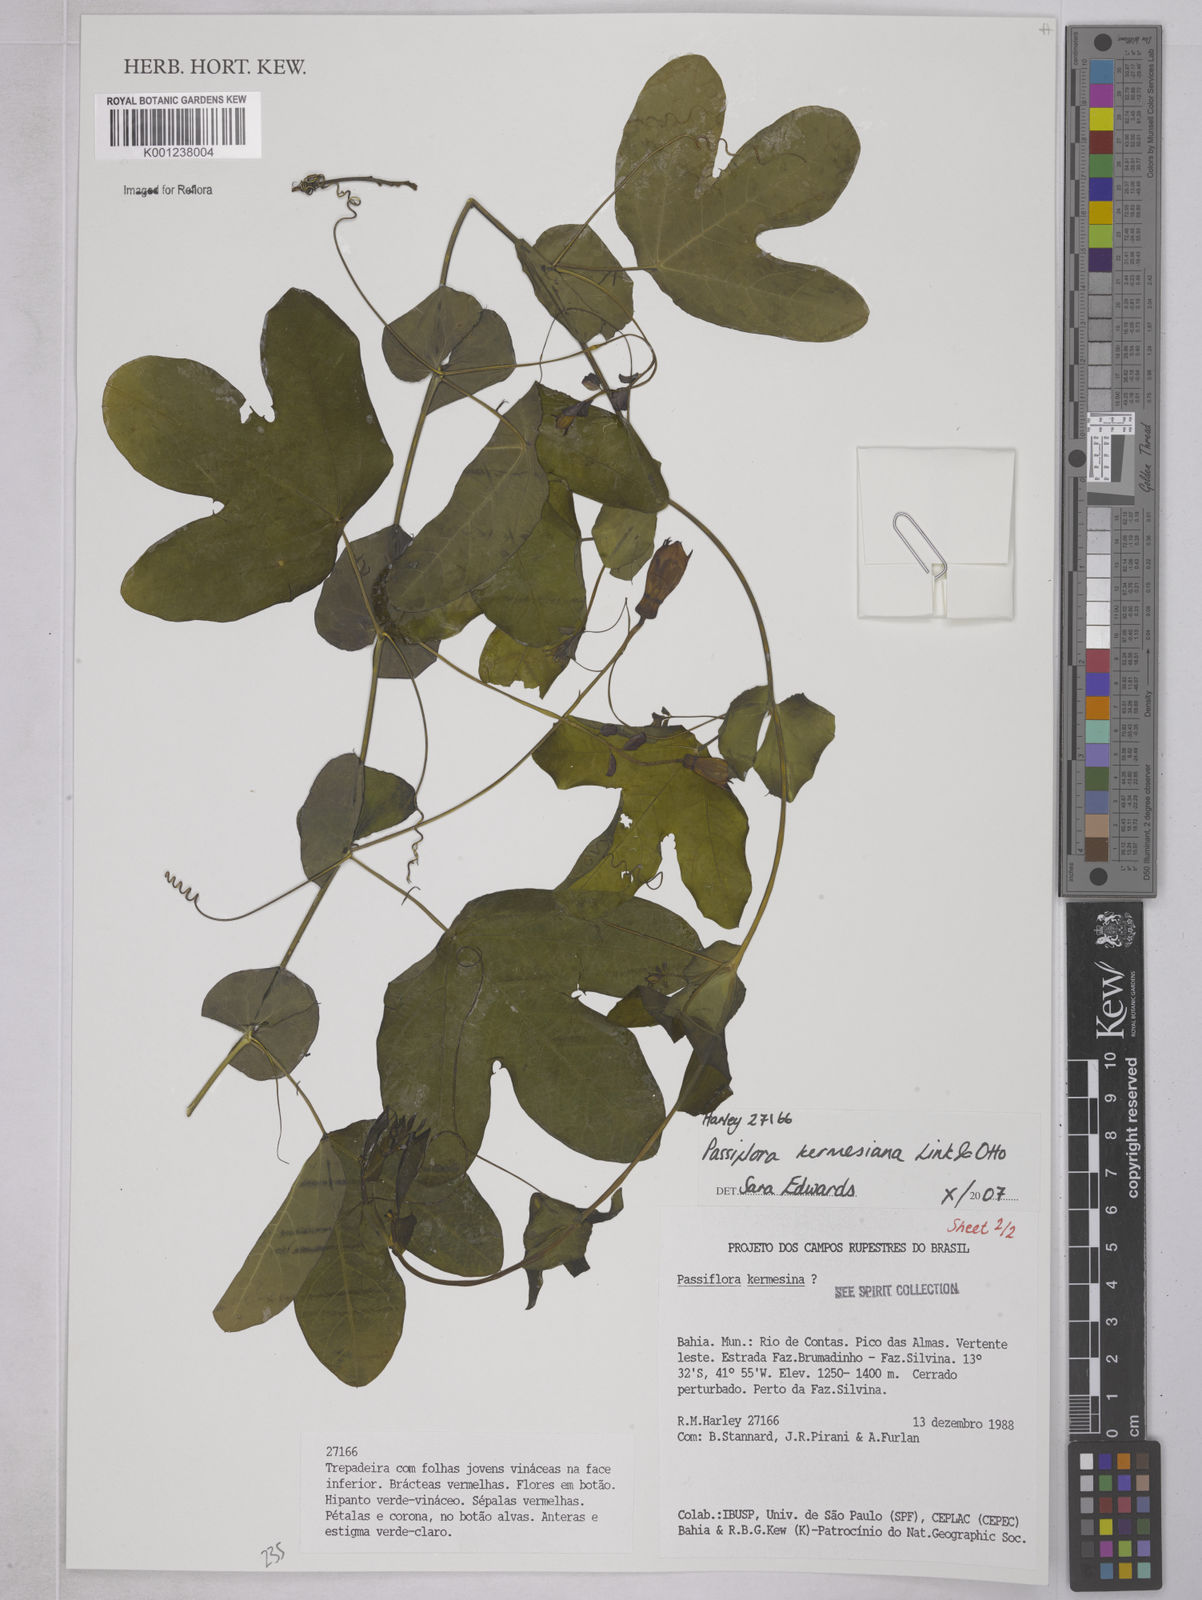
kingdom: Plantae
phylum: Tracheophyta
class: Magnoliopsida
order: Malpighiales
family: Passifloraceae
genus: Passiflora
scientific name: Passiflora kermesina
